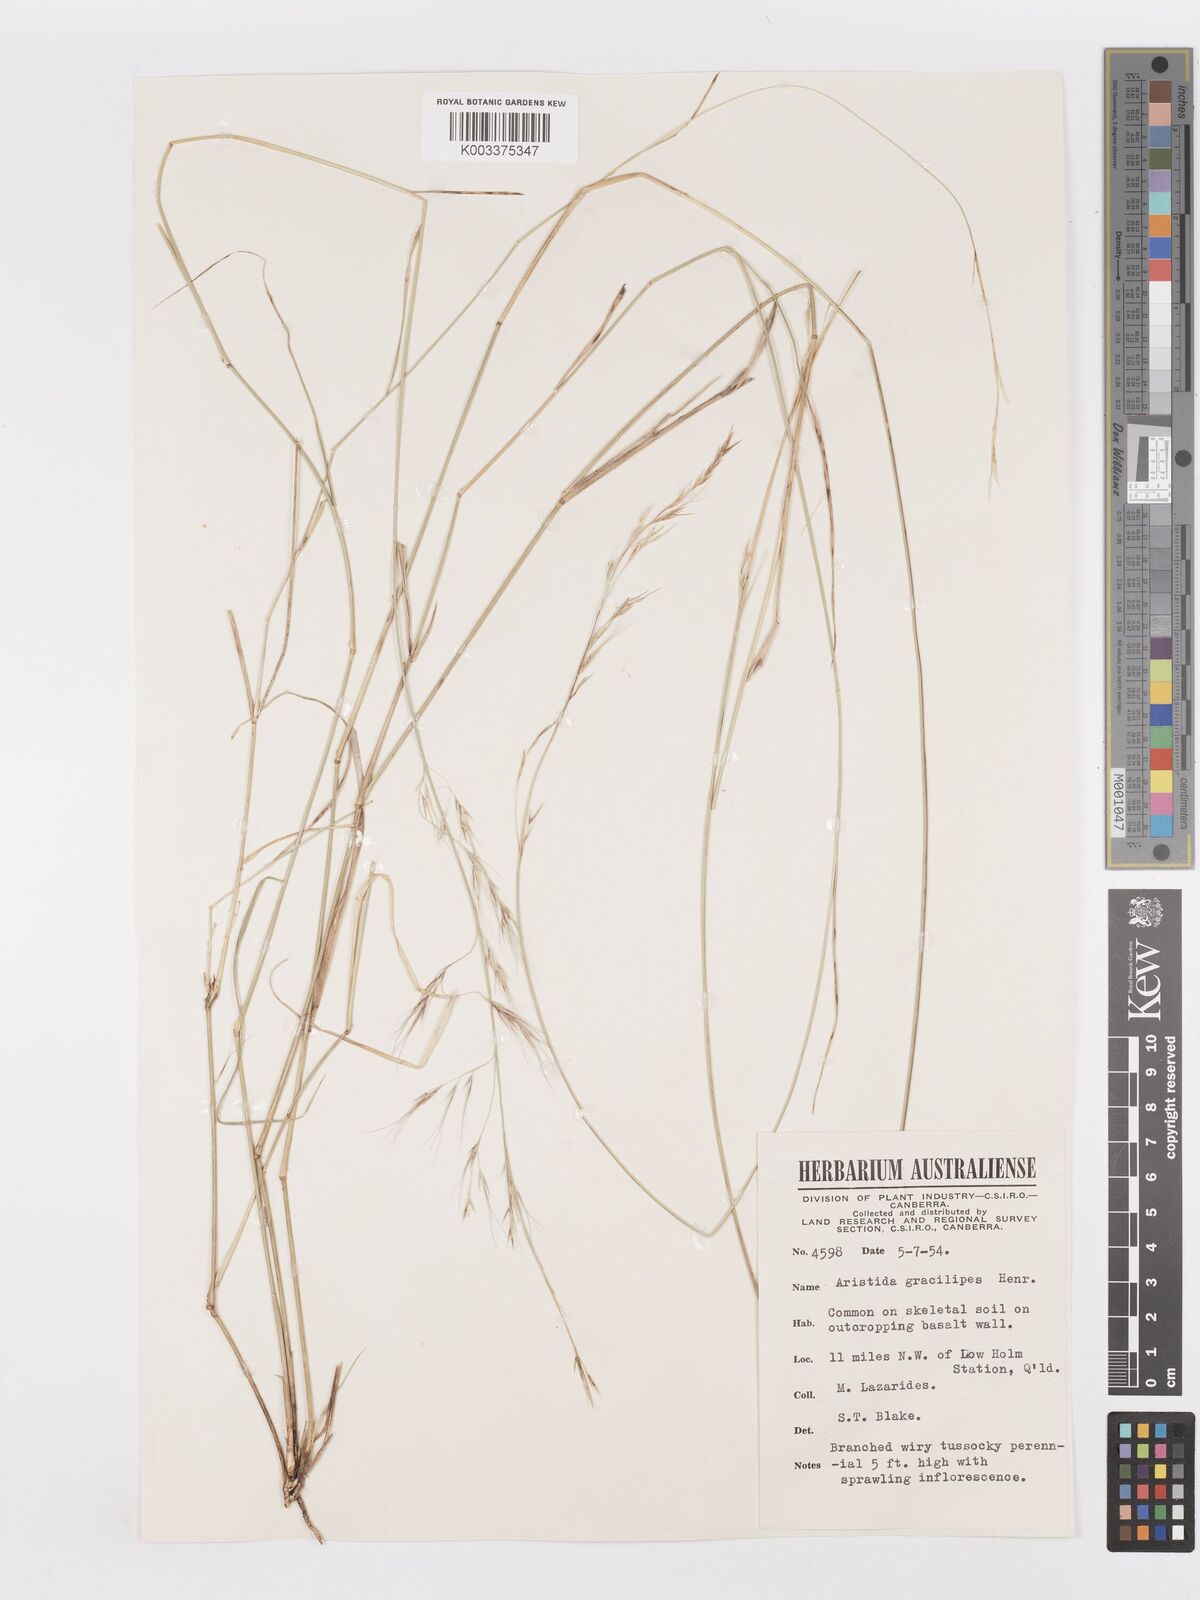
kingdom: Plantae
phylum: Tracheophyta
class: Liliopsida
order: Poales
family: Poaceae
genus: Aristida
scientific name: Aristida gracilipes
